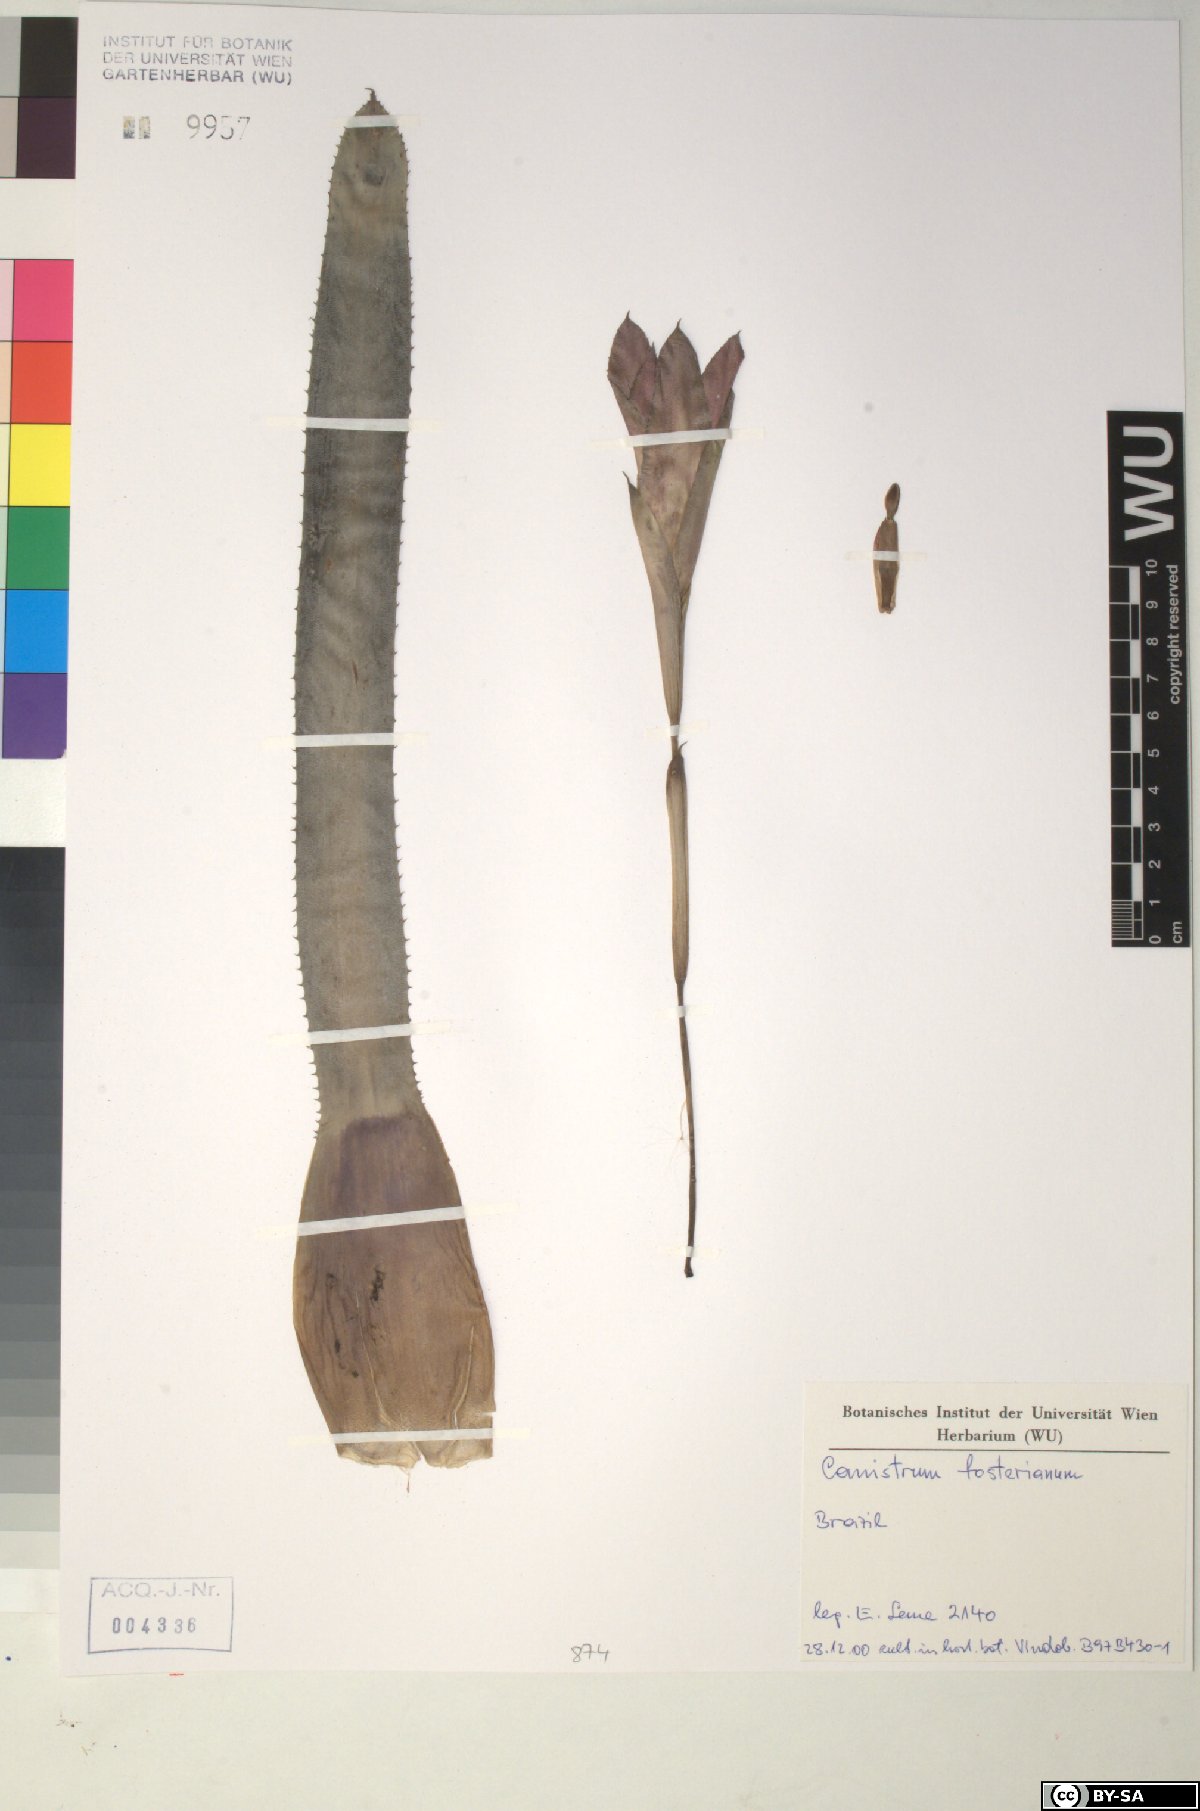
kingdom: Plantae
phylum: Tracheophyta
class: Liliopsida
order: Poales
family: Bromeliaceae
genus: Canistrum
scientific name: Canistrum fosterianum
